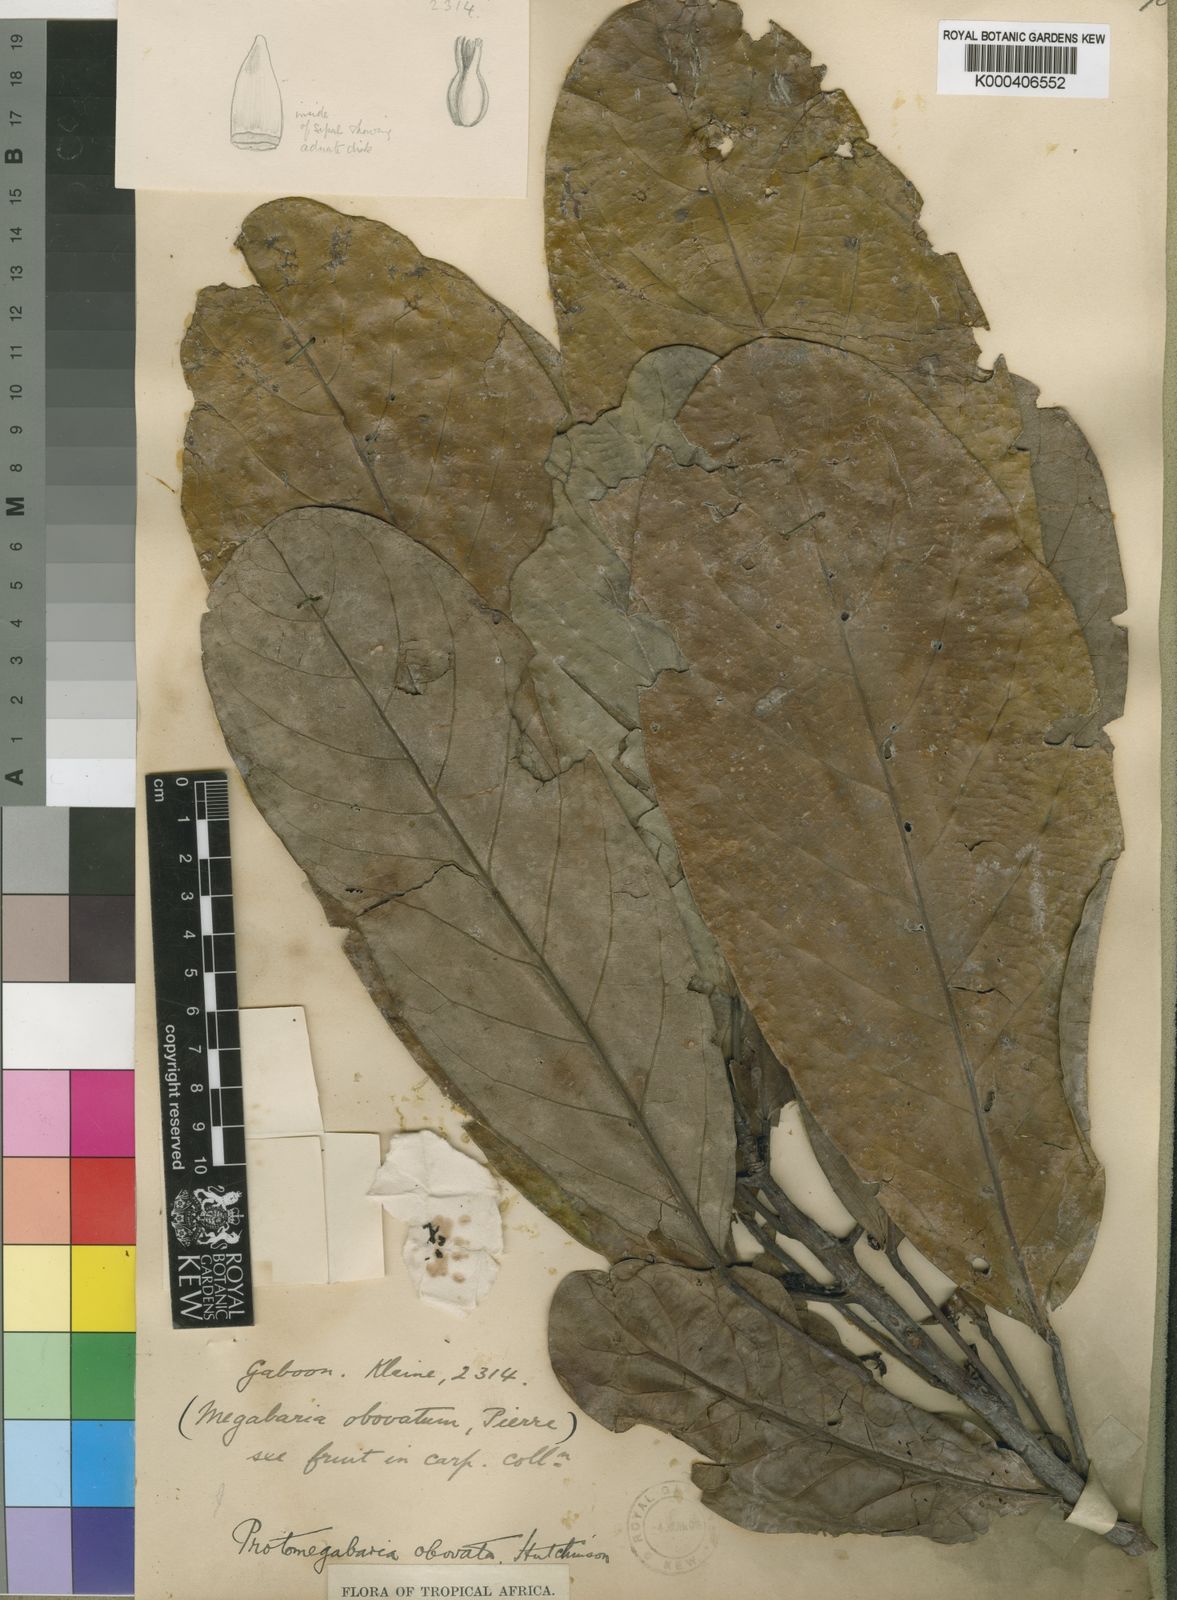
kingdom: Plantae
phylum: Tracheophyta
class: Magnoliopsida
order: Malpighiales
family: Phyllanthaceae
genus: Protomegabaria
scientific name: Protomegabaria stapfiana
